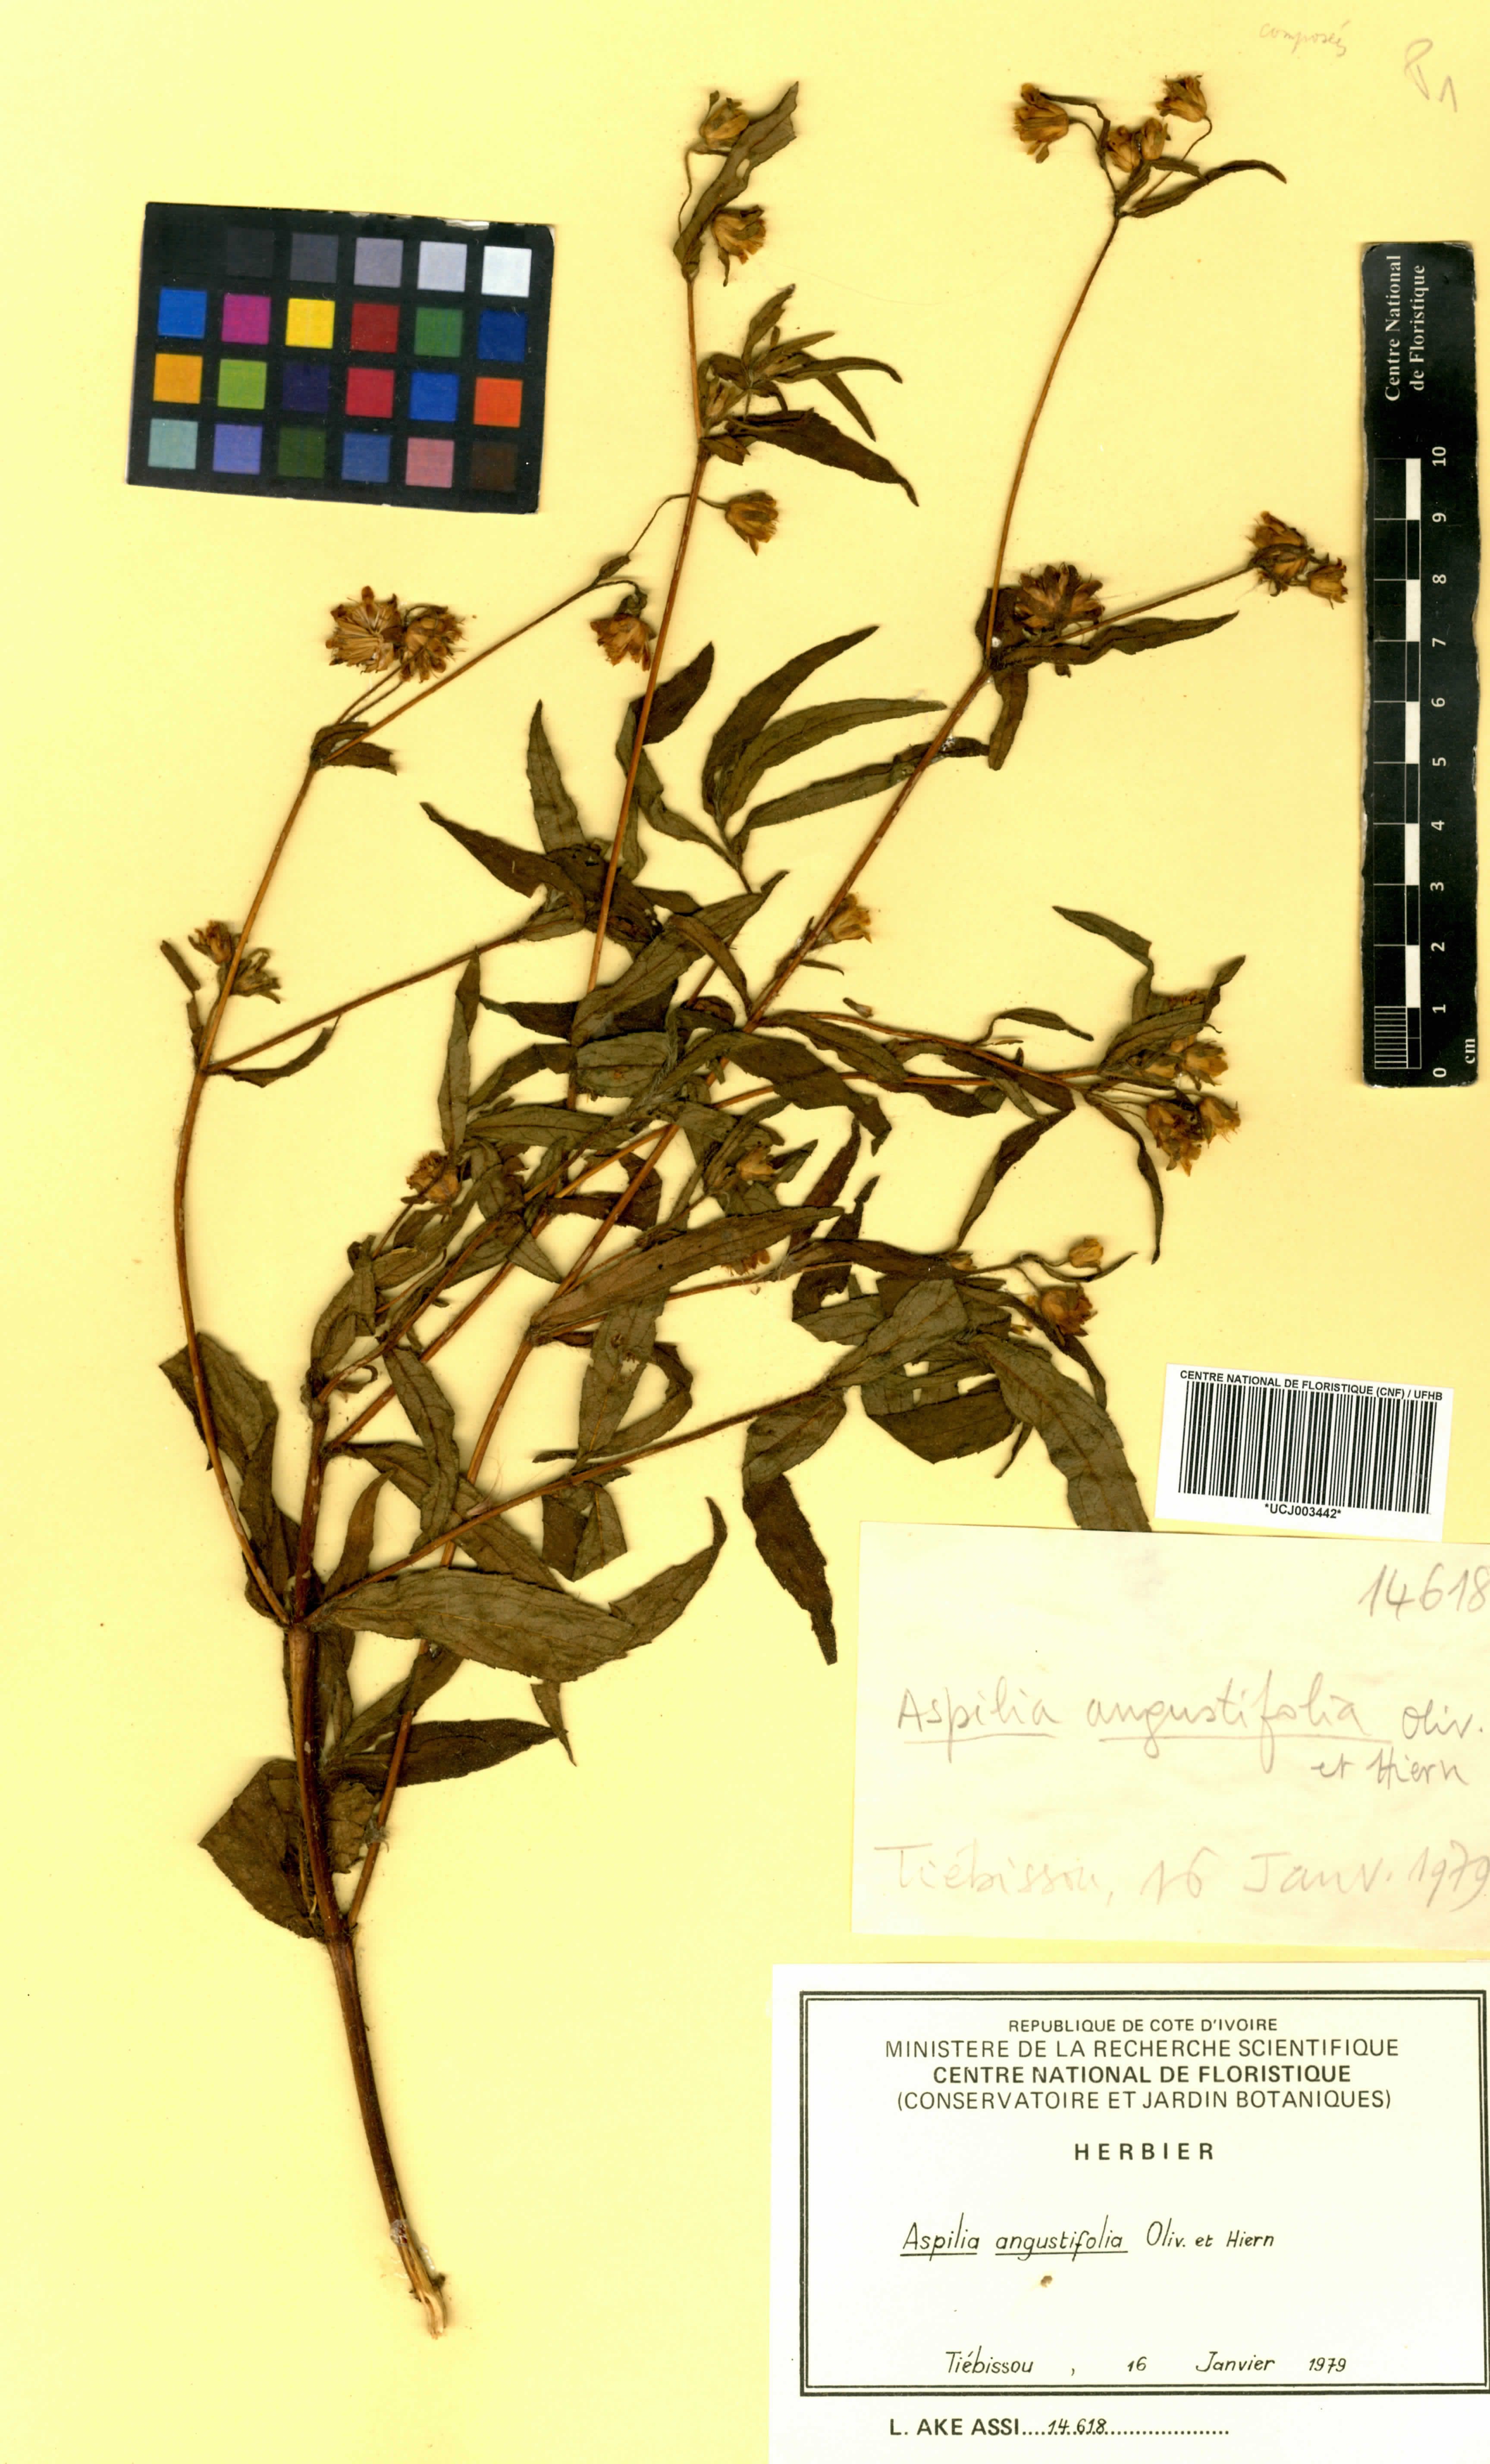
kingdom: Plantae
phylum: Tracheophyta
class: Magnoliopsida
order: Asterales
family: Asteraceae
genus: Aspilia
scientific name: Aspilia angustifolia
